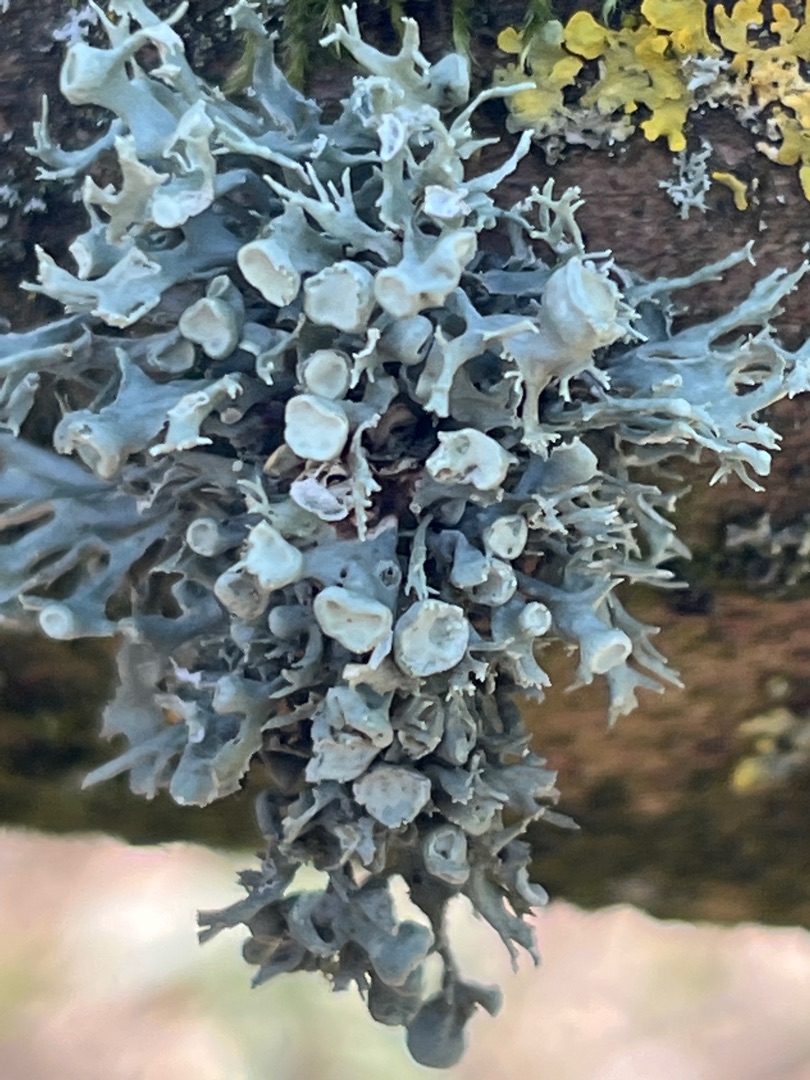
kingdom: Fungi
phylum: Ascomycota
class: Lecanoromycetes
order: Lecanorales
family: Ramalinaceae
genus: Ramalina
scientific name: Ramalina fastigiata
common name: Tue-grenlav
